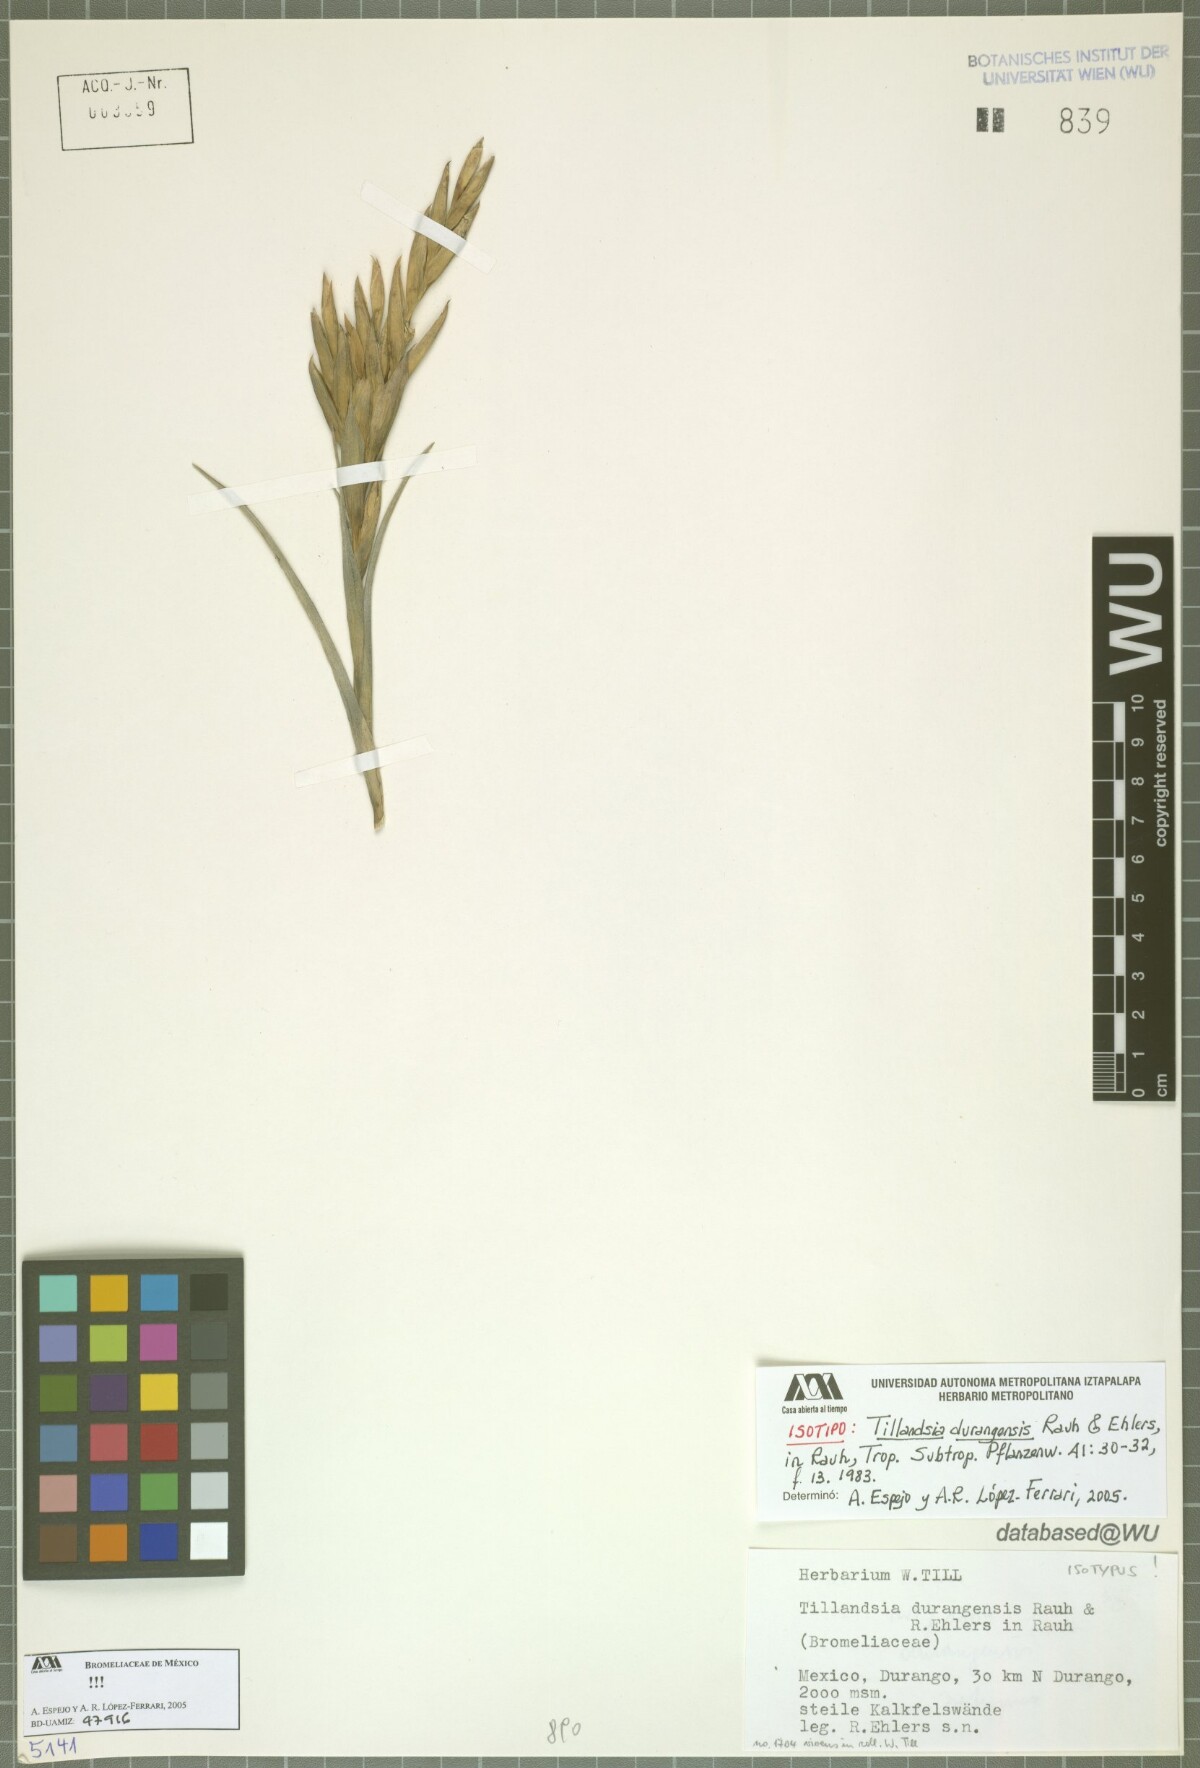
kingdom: Plantae
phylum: Tracheophyta
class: Liliopsida
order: Poales
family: Bromeliaceae
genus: Tillandsia
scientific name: Tillandsia durangensis
